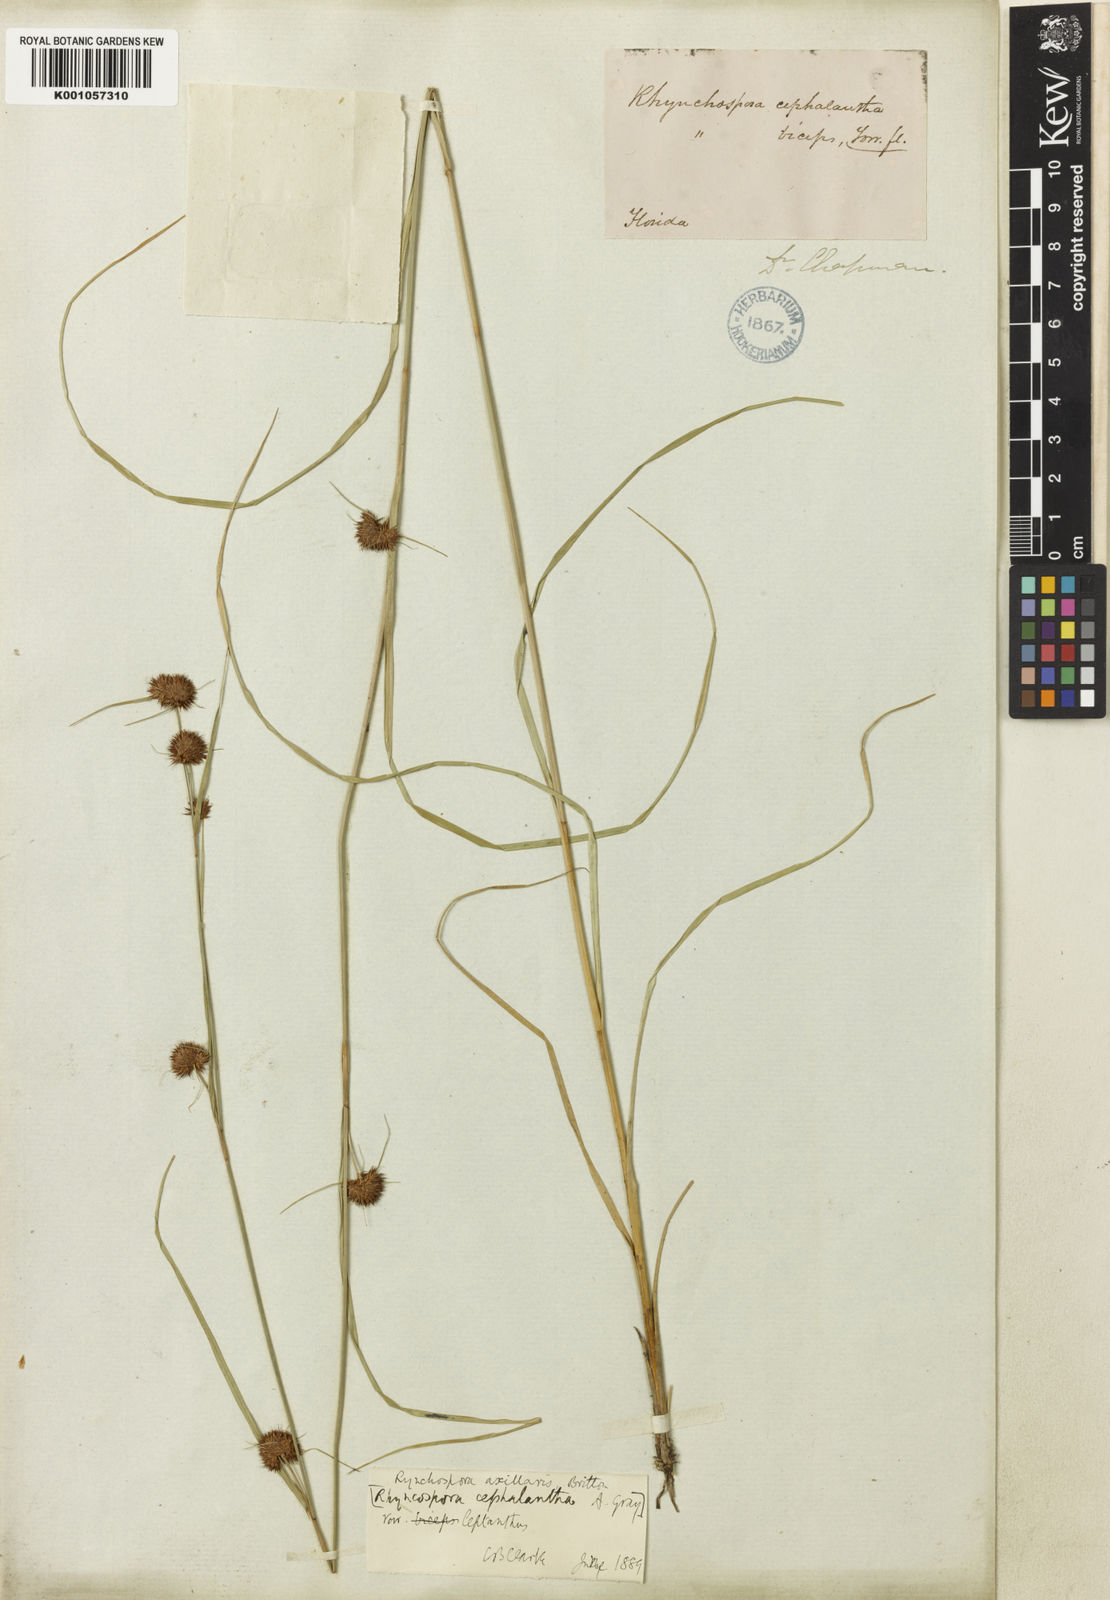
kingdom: Plantae
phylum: Tracheophyta
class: Liliopsida
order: Poales
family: Cyperaceae
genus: Rhynchospora
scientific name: Rhynchospora glomerata
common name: Cluster beak sedge
